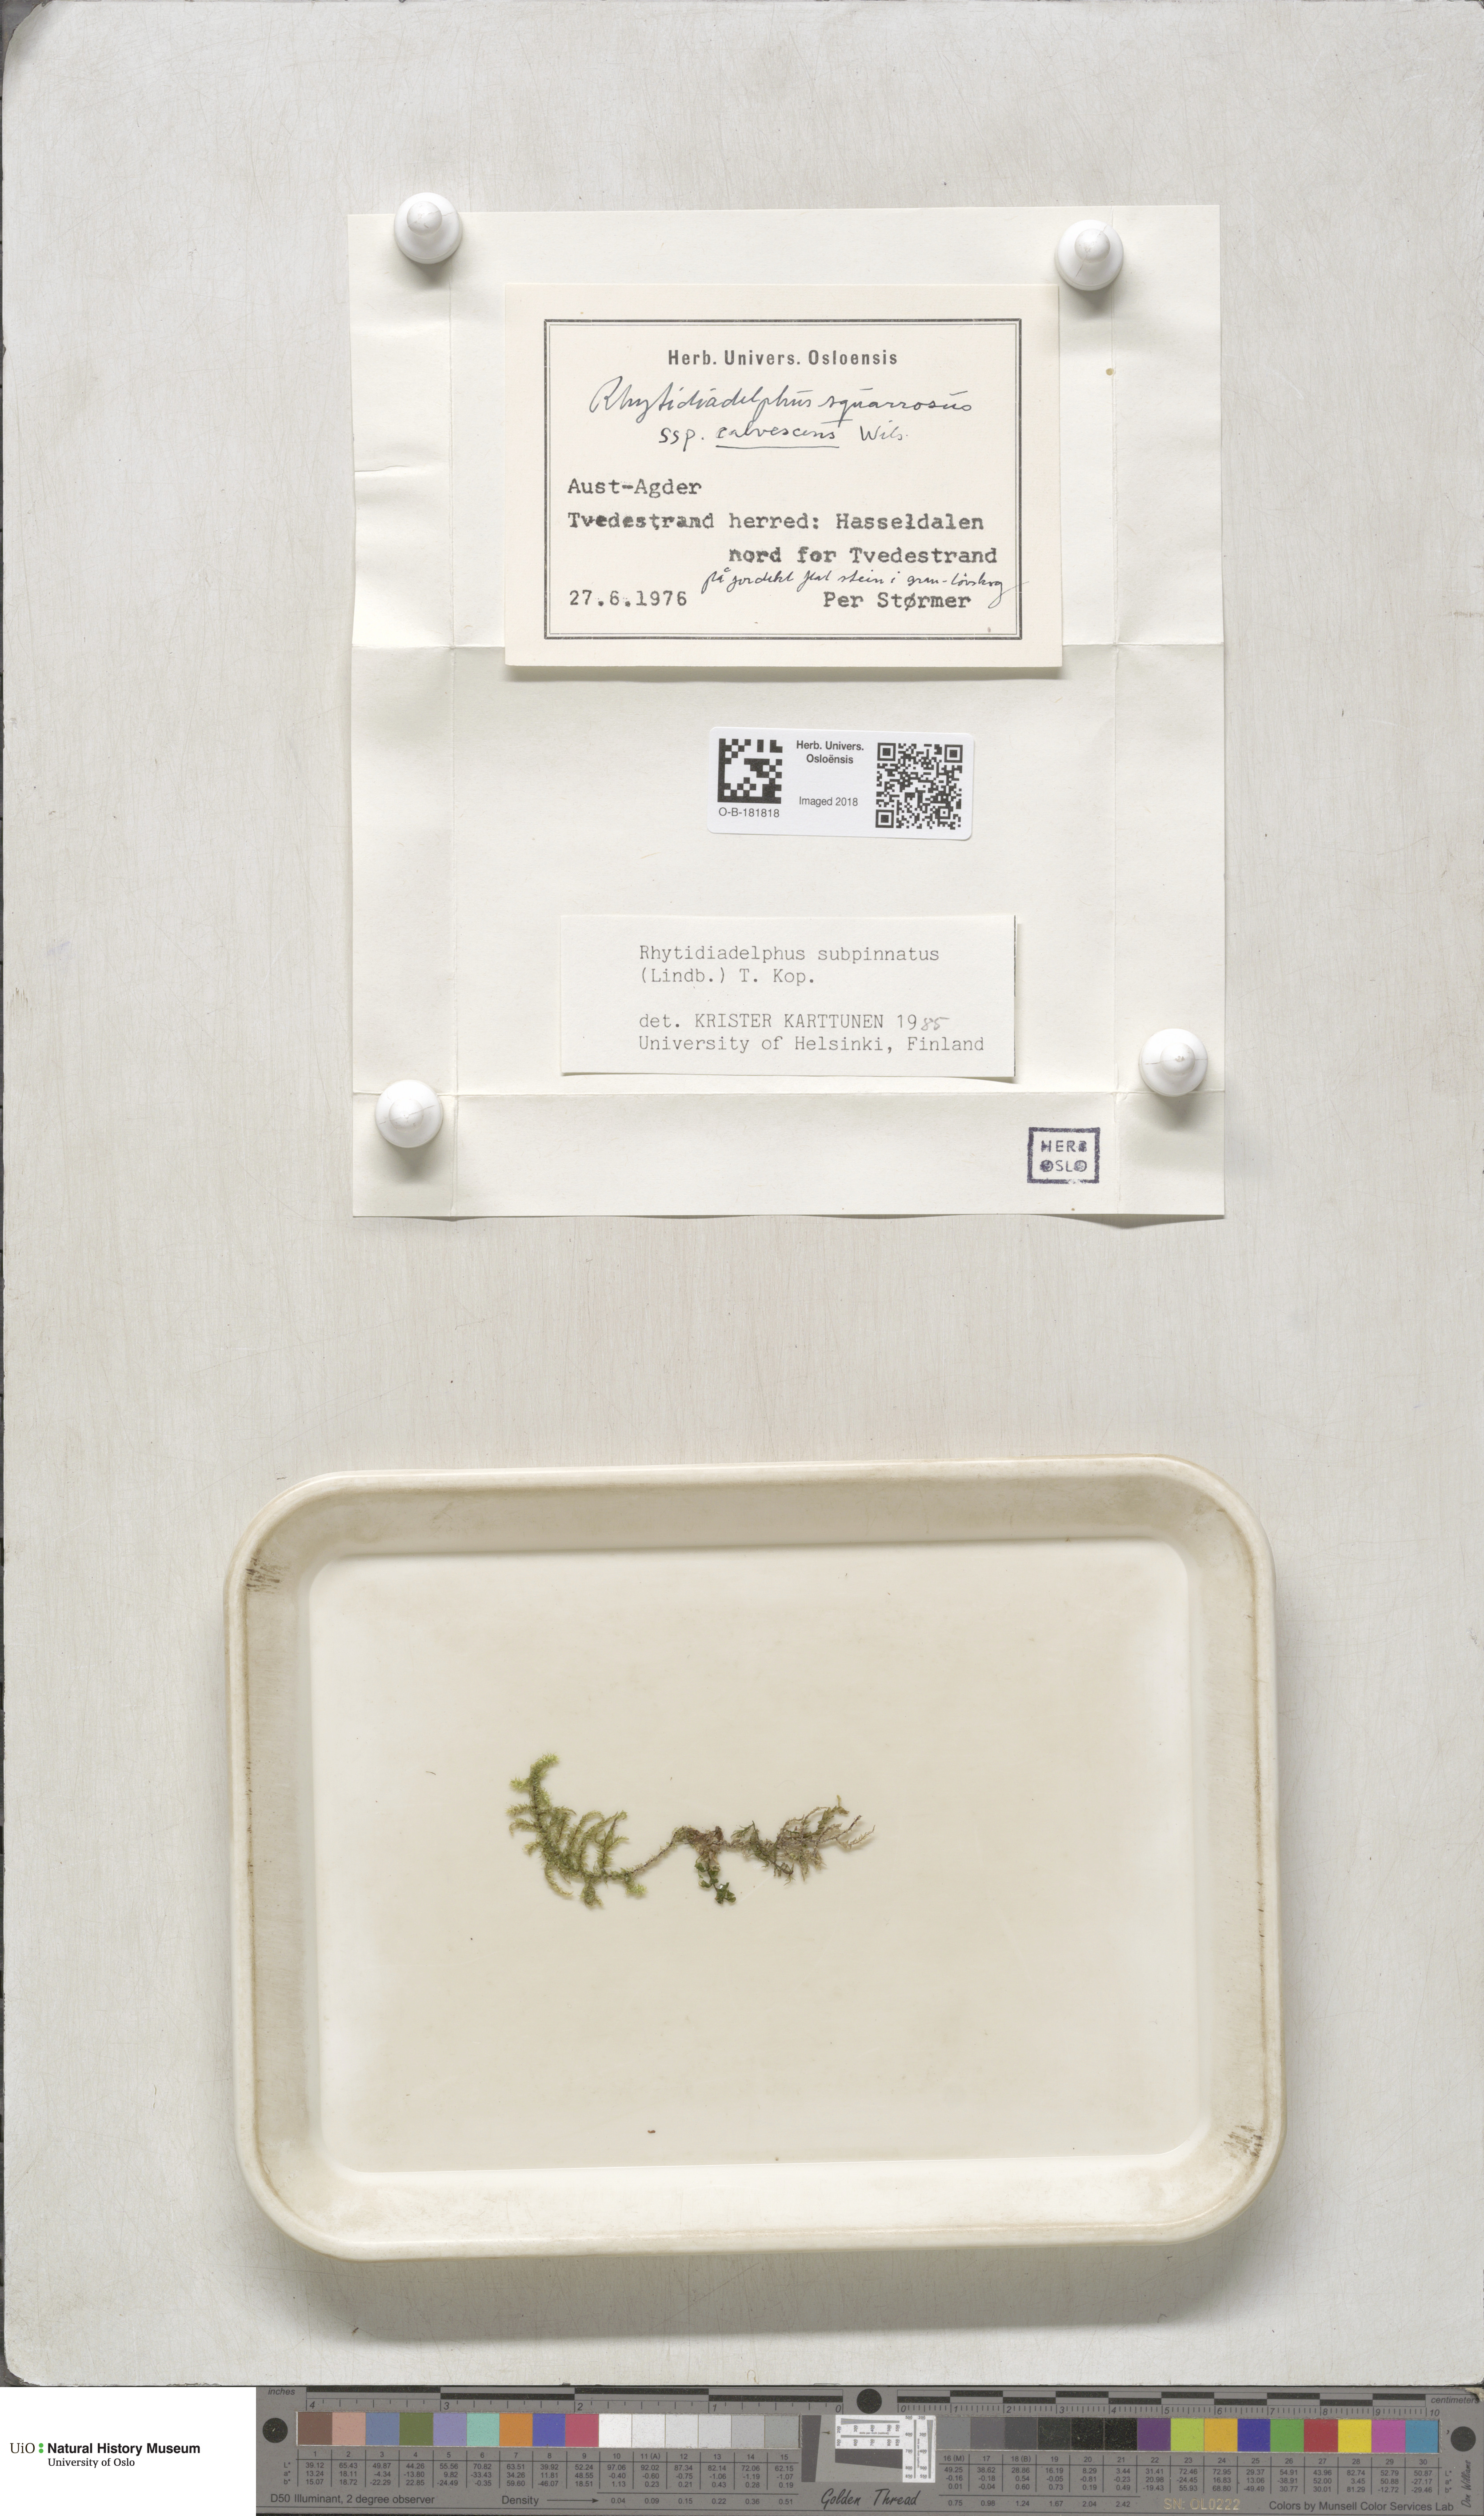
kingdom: Plantae
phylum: Bryophyta
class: Bryopsida
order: Hypnales
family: Hylocomiaceae
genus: Rhytidiadelphus
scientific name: Rhytidiadelphus subpinnatus
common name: Subpinnate gooseneck moss
